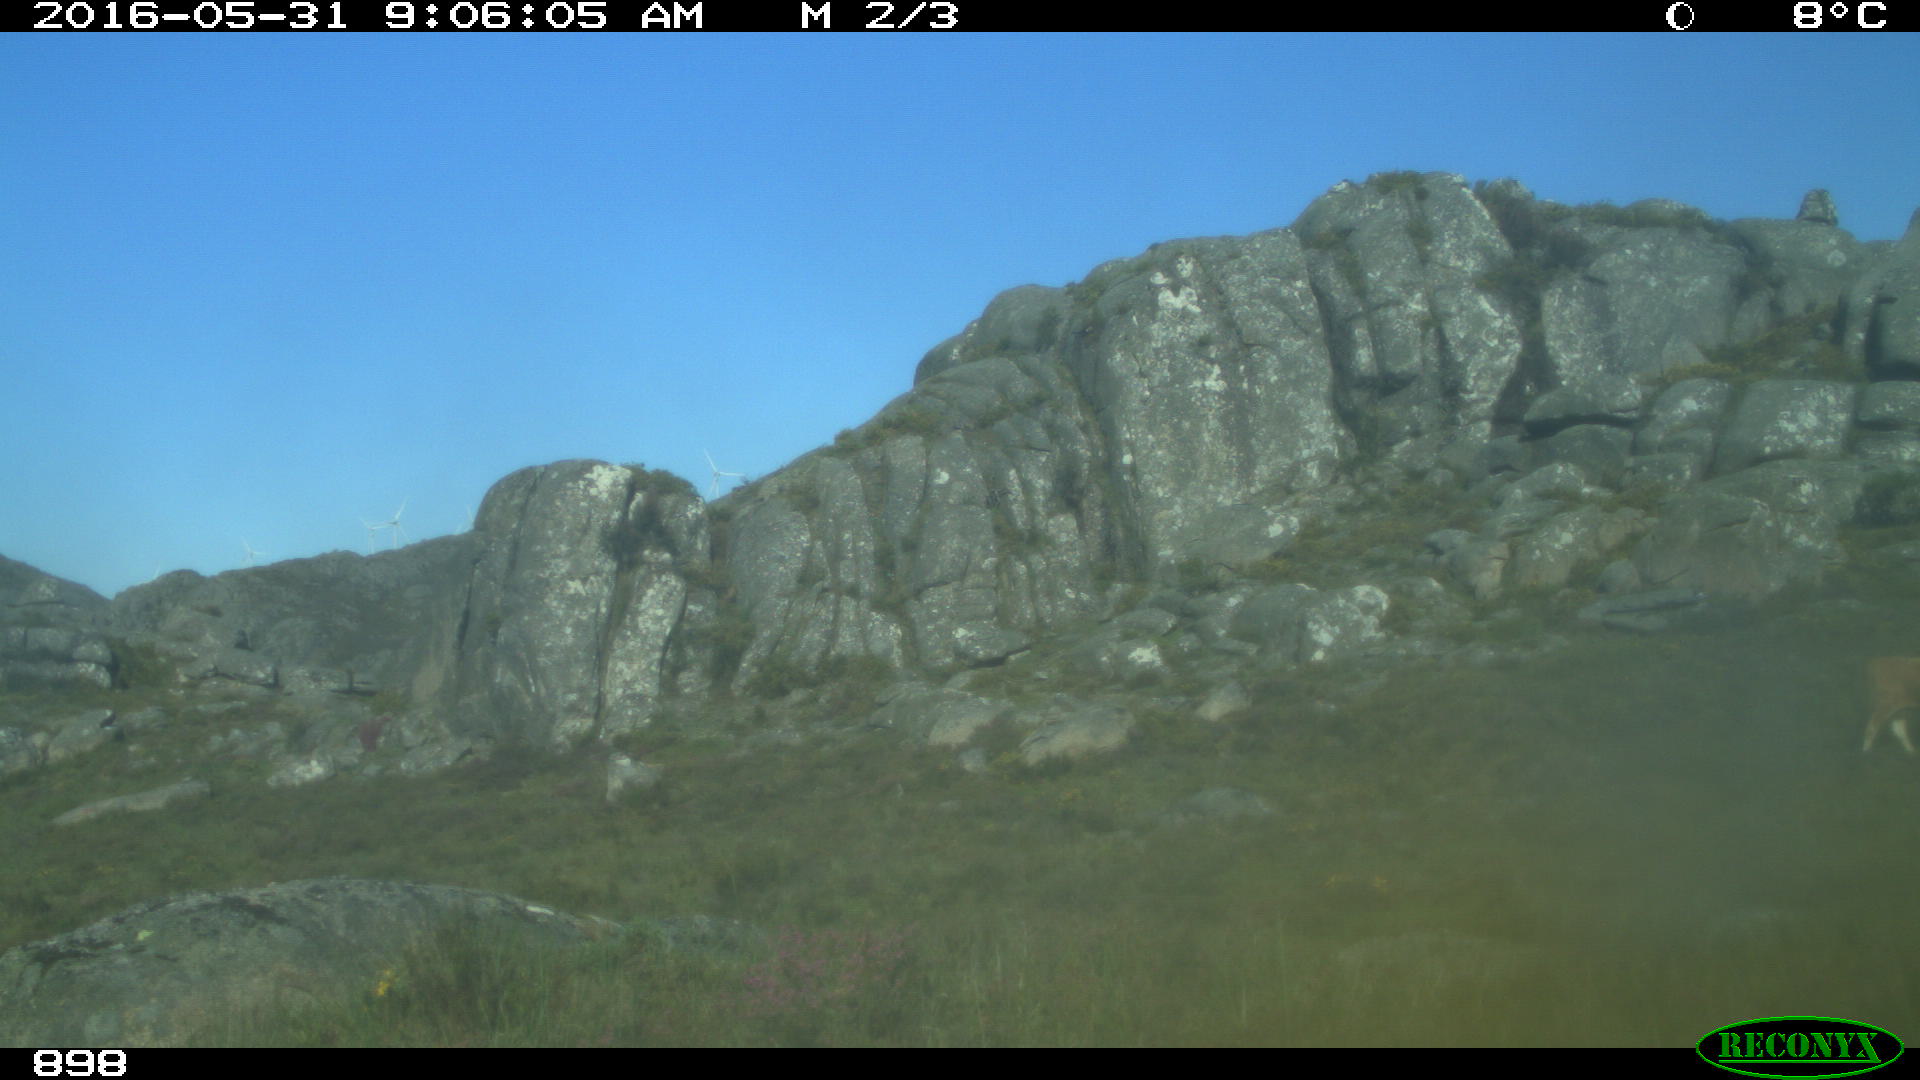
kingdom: Animalia
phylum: Chordata
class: Mammalia
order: Artiodactyla
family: Bovidae
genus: Bos
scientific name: Bos taurus
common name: Domesticated cattle
